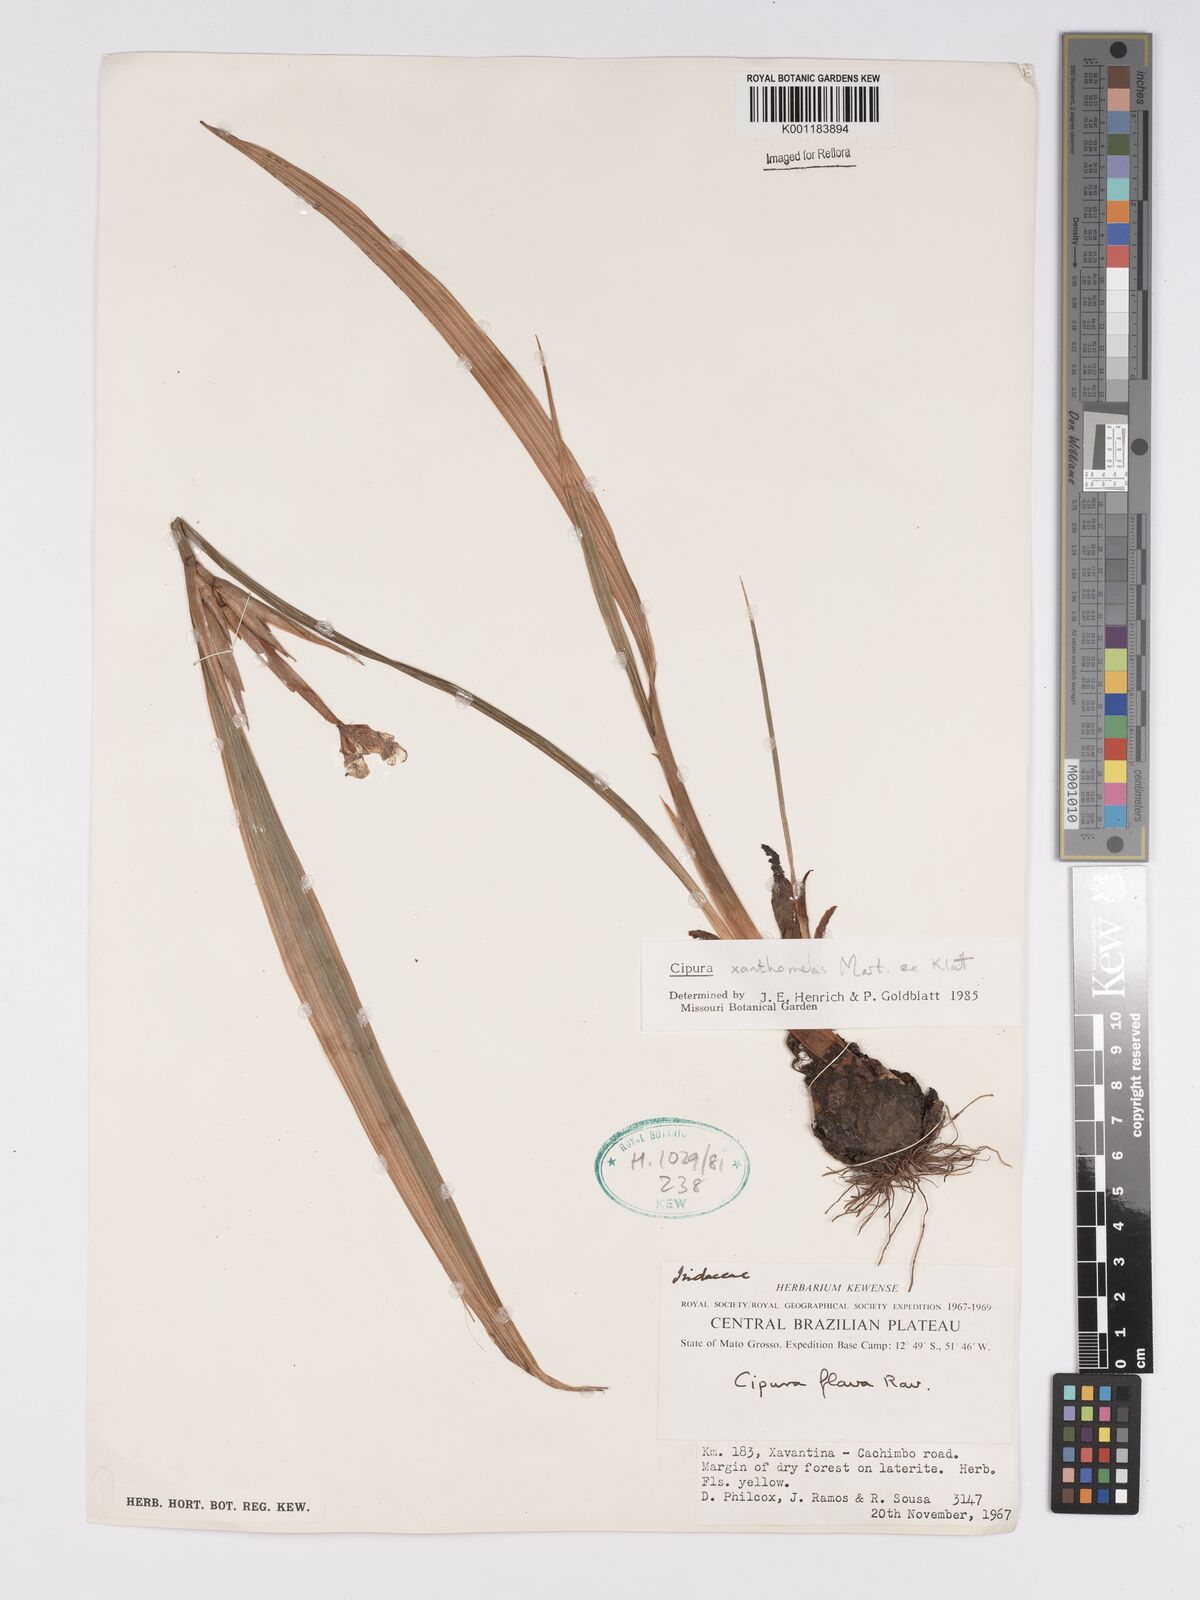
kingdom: Plantae
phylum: Tracheophyta
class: Liliopsida
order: Asparagales
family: Iridaceae
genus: Cipura
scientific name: Cipura xanthomelas
